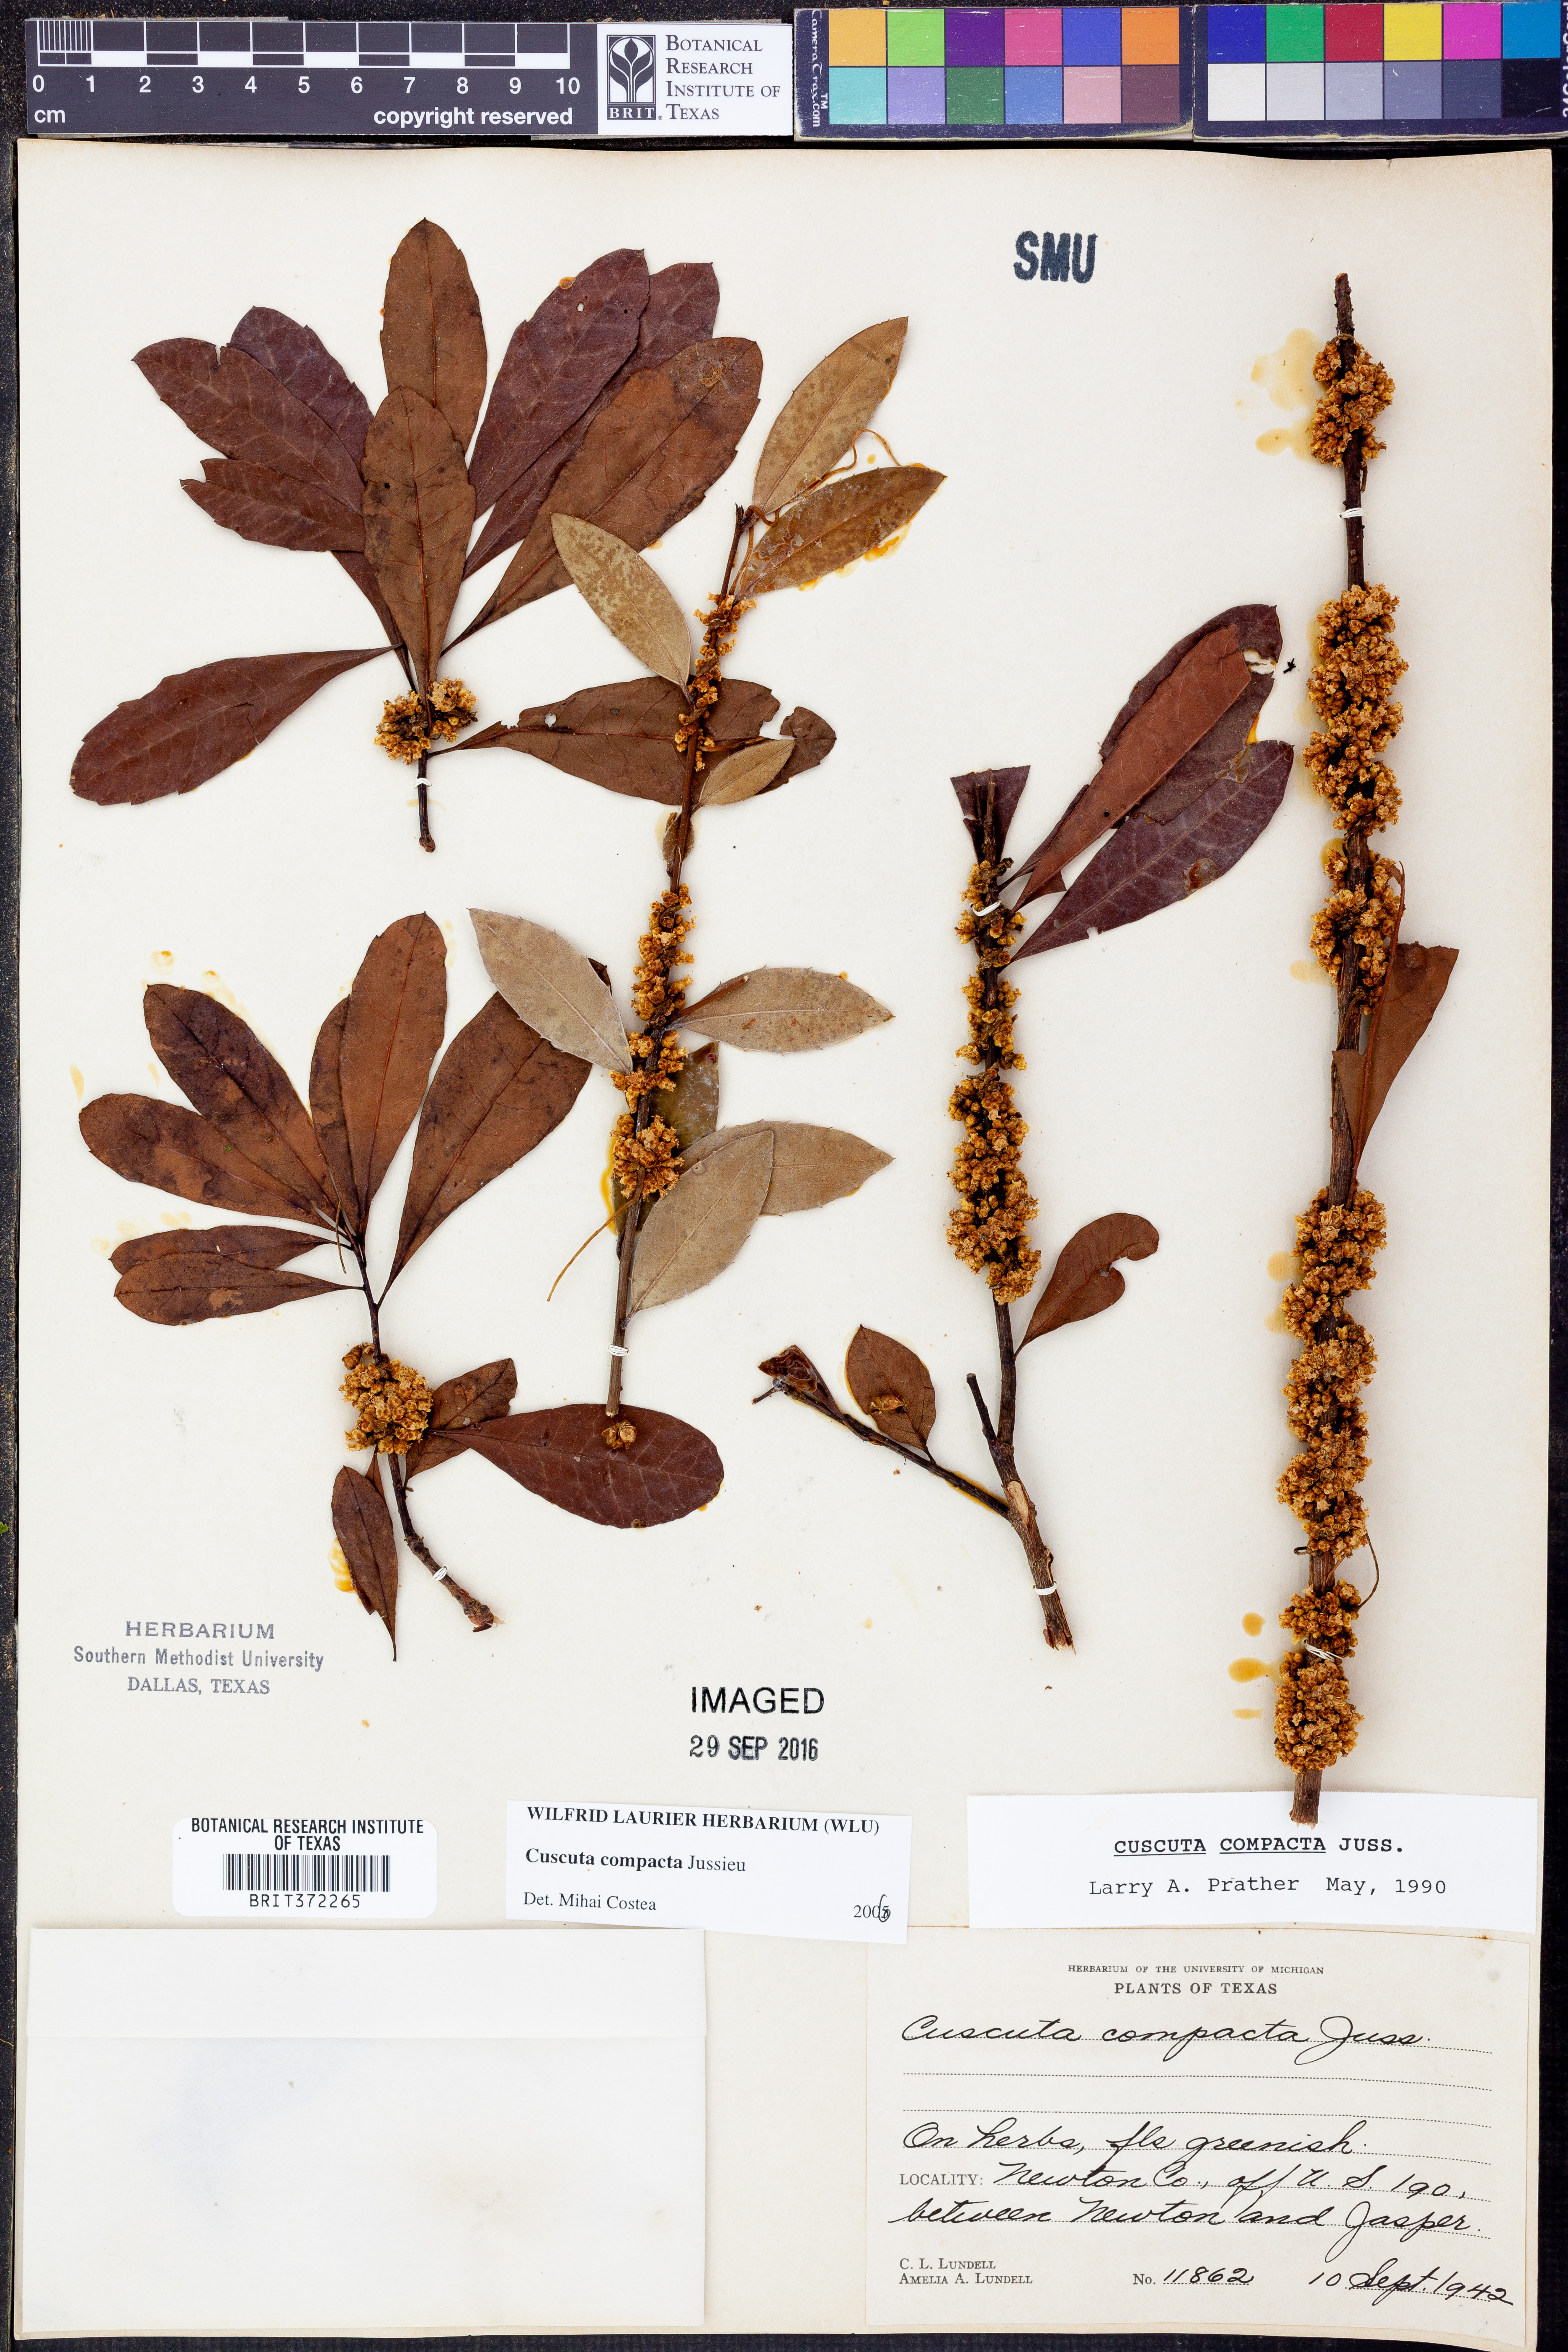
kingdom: Plantae
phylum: Tracheophyta
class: Magnoliopsida
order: Solanales
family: Convolvulaceae
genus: Cuscuta
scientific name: Cuscuta compacta
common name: Compact dodder
